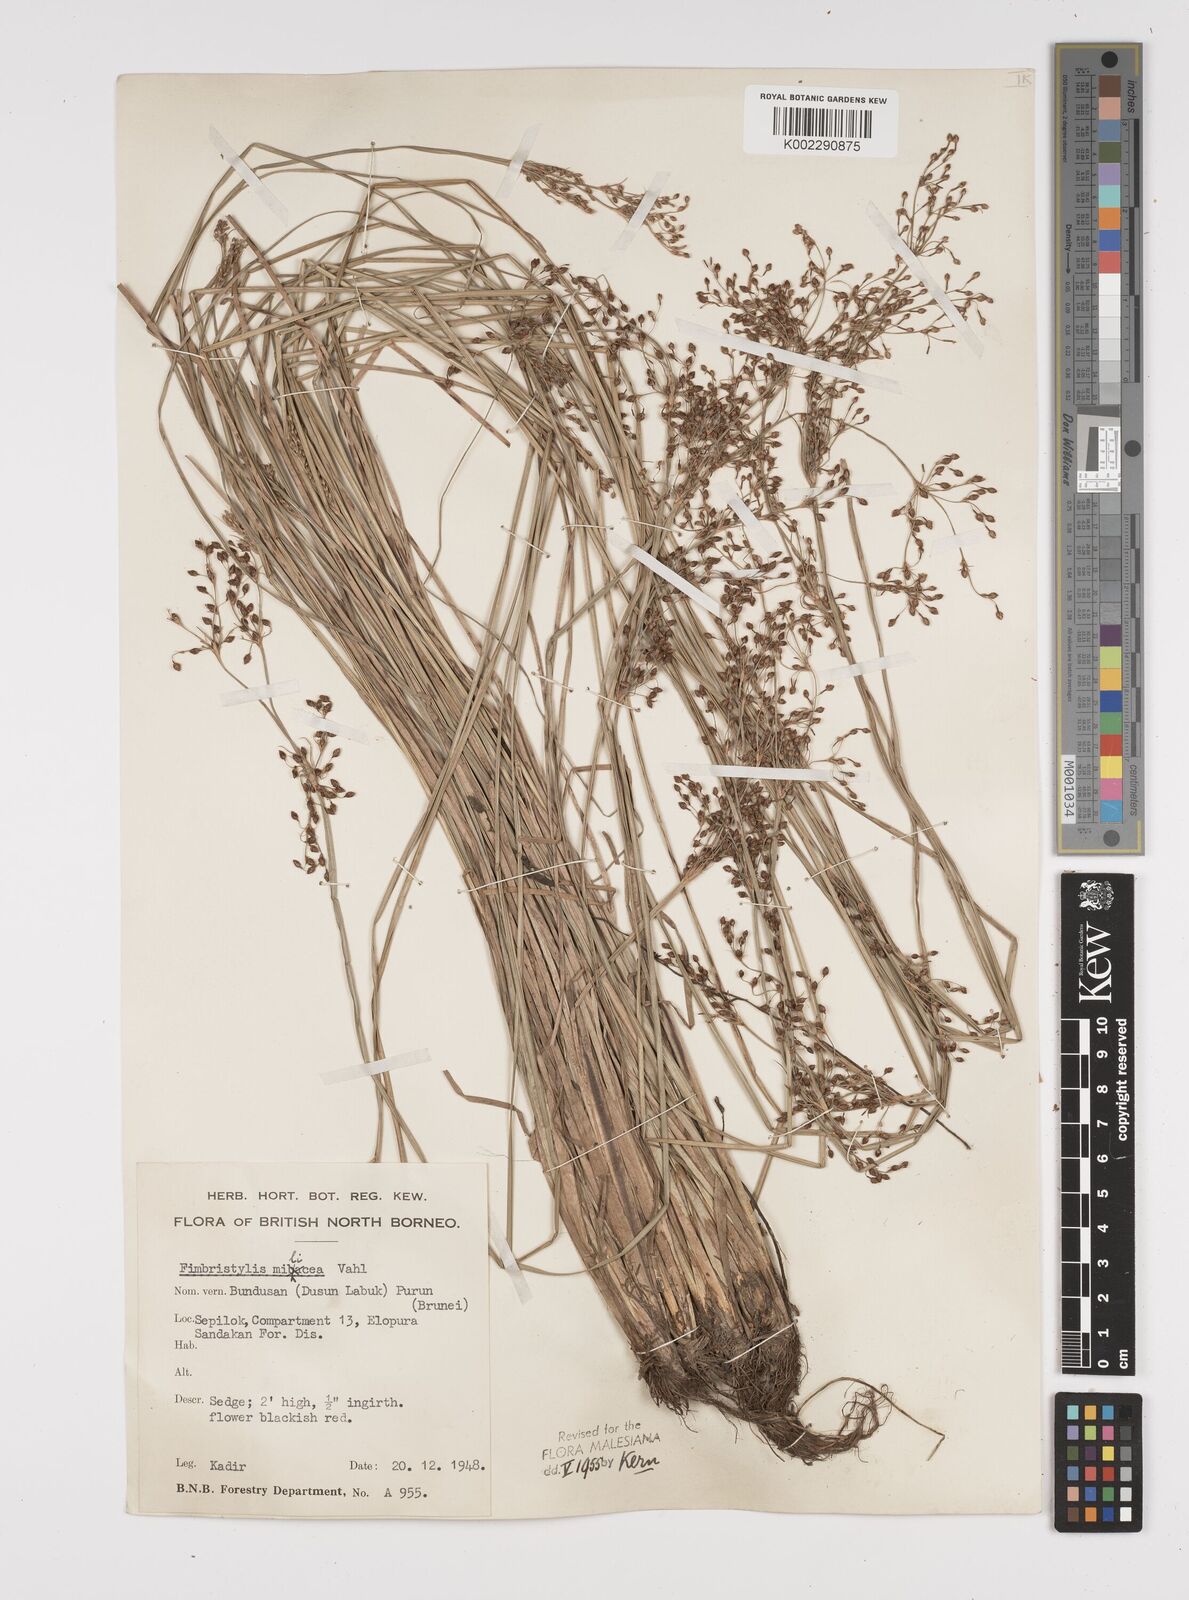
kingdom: Plantae
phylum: Tracheophyta
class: Liliopsida
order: Poales
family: Cyperaceae
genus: Fimbristylis
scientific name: Fimbristylis littoralis
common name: Fimbry
